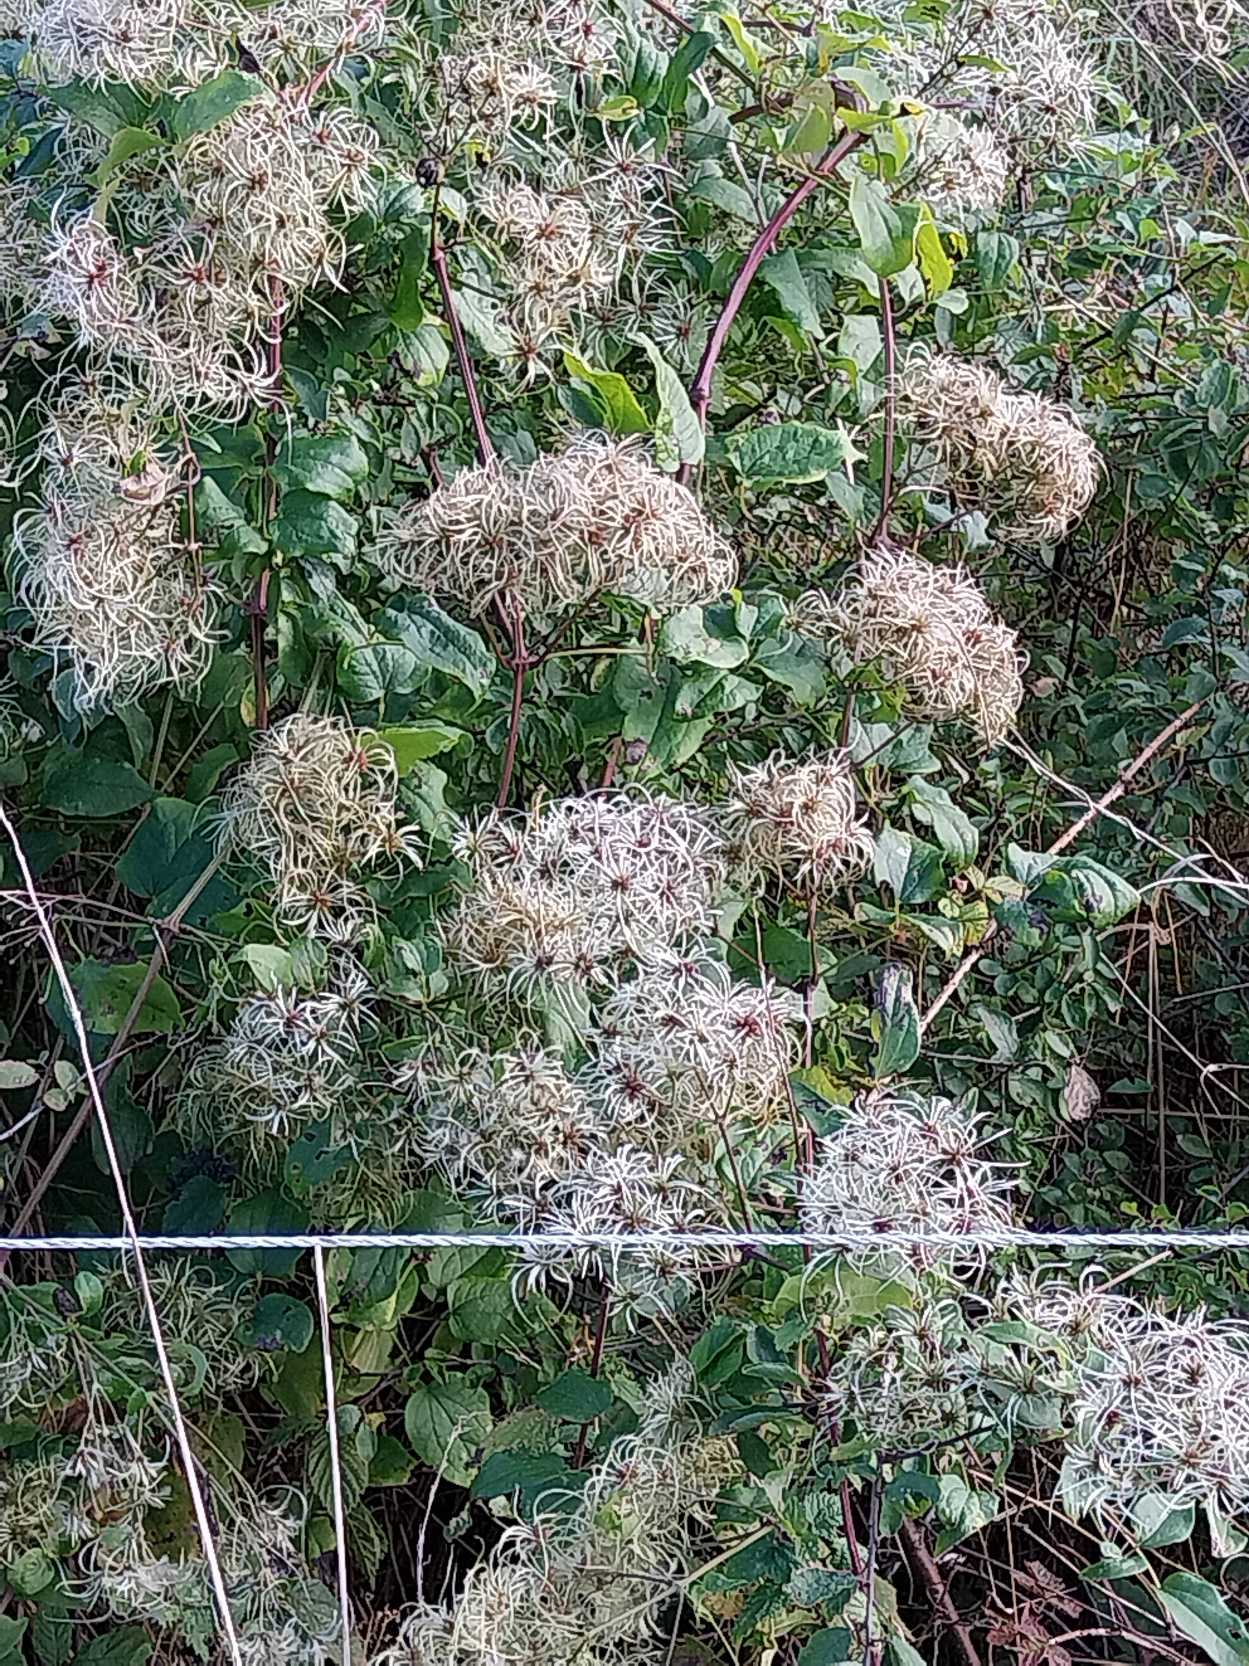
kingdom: Plantae
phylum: Tracheophyta
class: Magnoliopsida
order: Ranunculales
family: Ranunculaceae
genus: Clematis
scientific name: Clematis vitalba
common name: Skovranke
